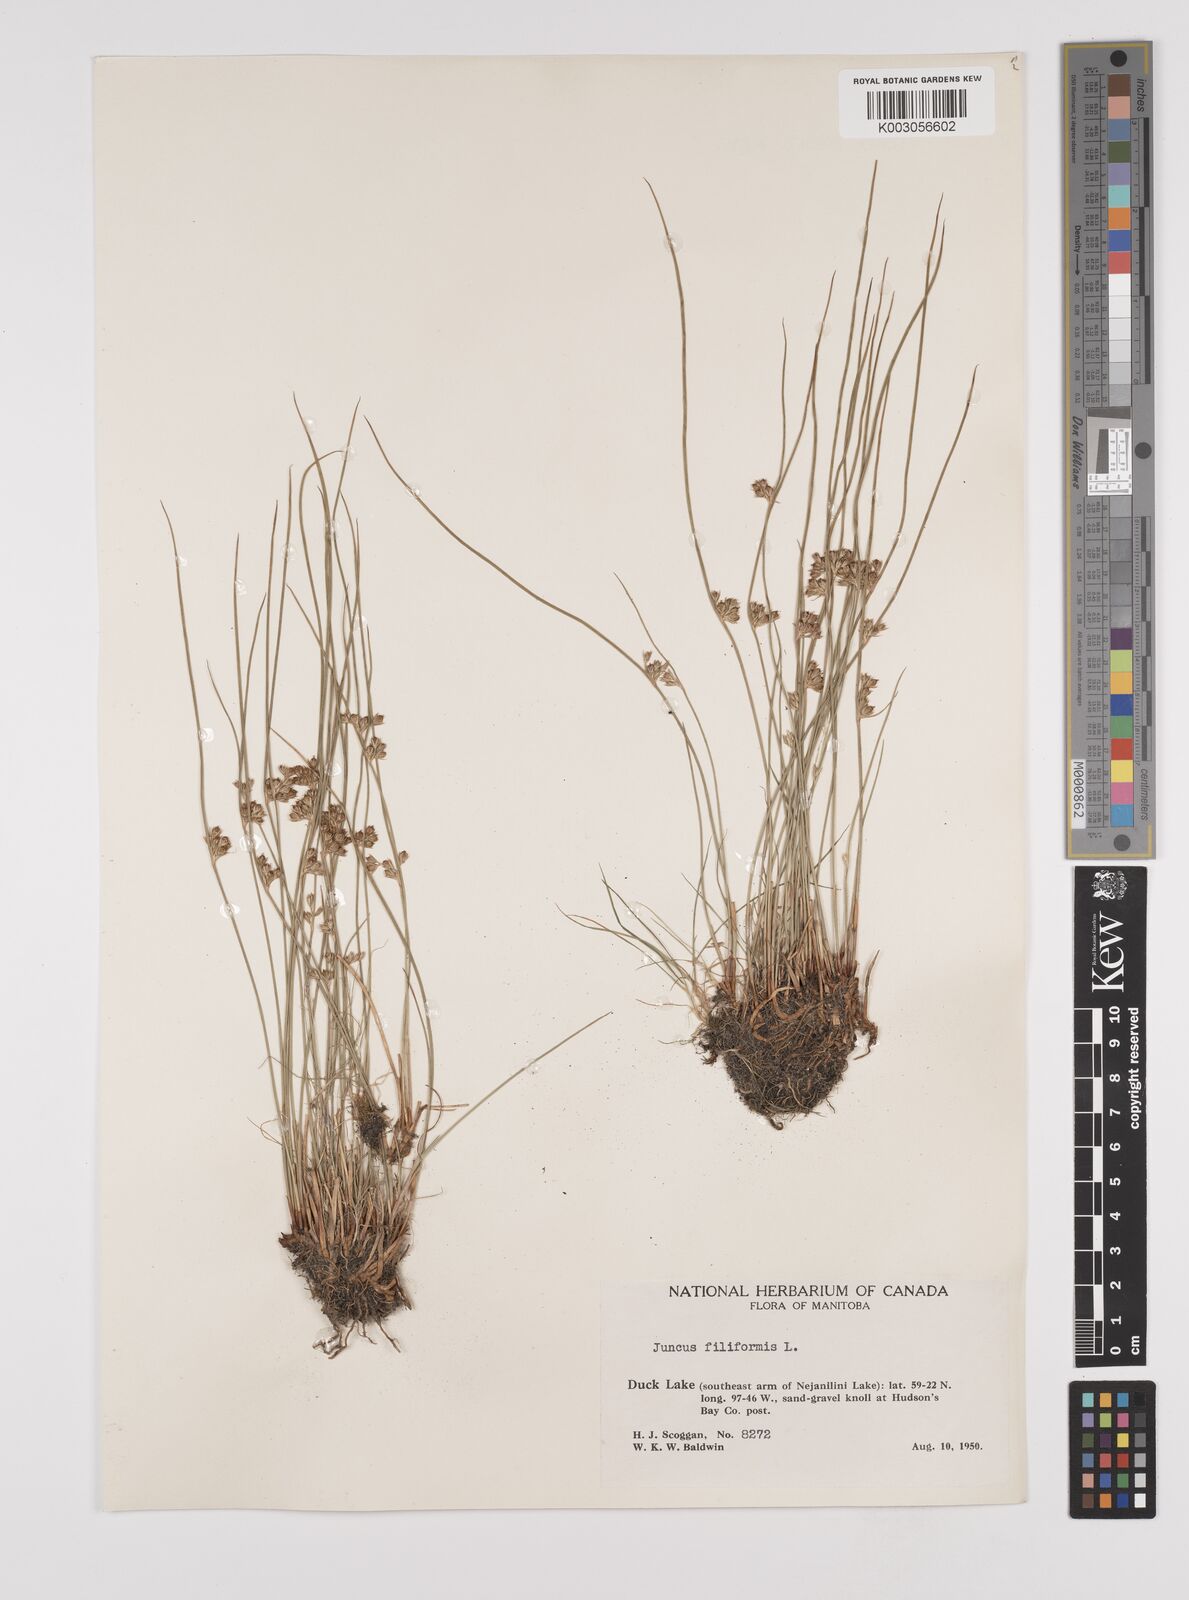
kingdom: Plantae
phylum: Tracheophyta
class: Liliopsida
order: Poales
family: Juncaceae
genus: Juncus
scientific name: Juncus filiformis
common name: Thread rush
